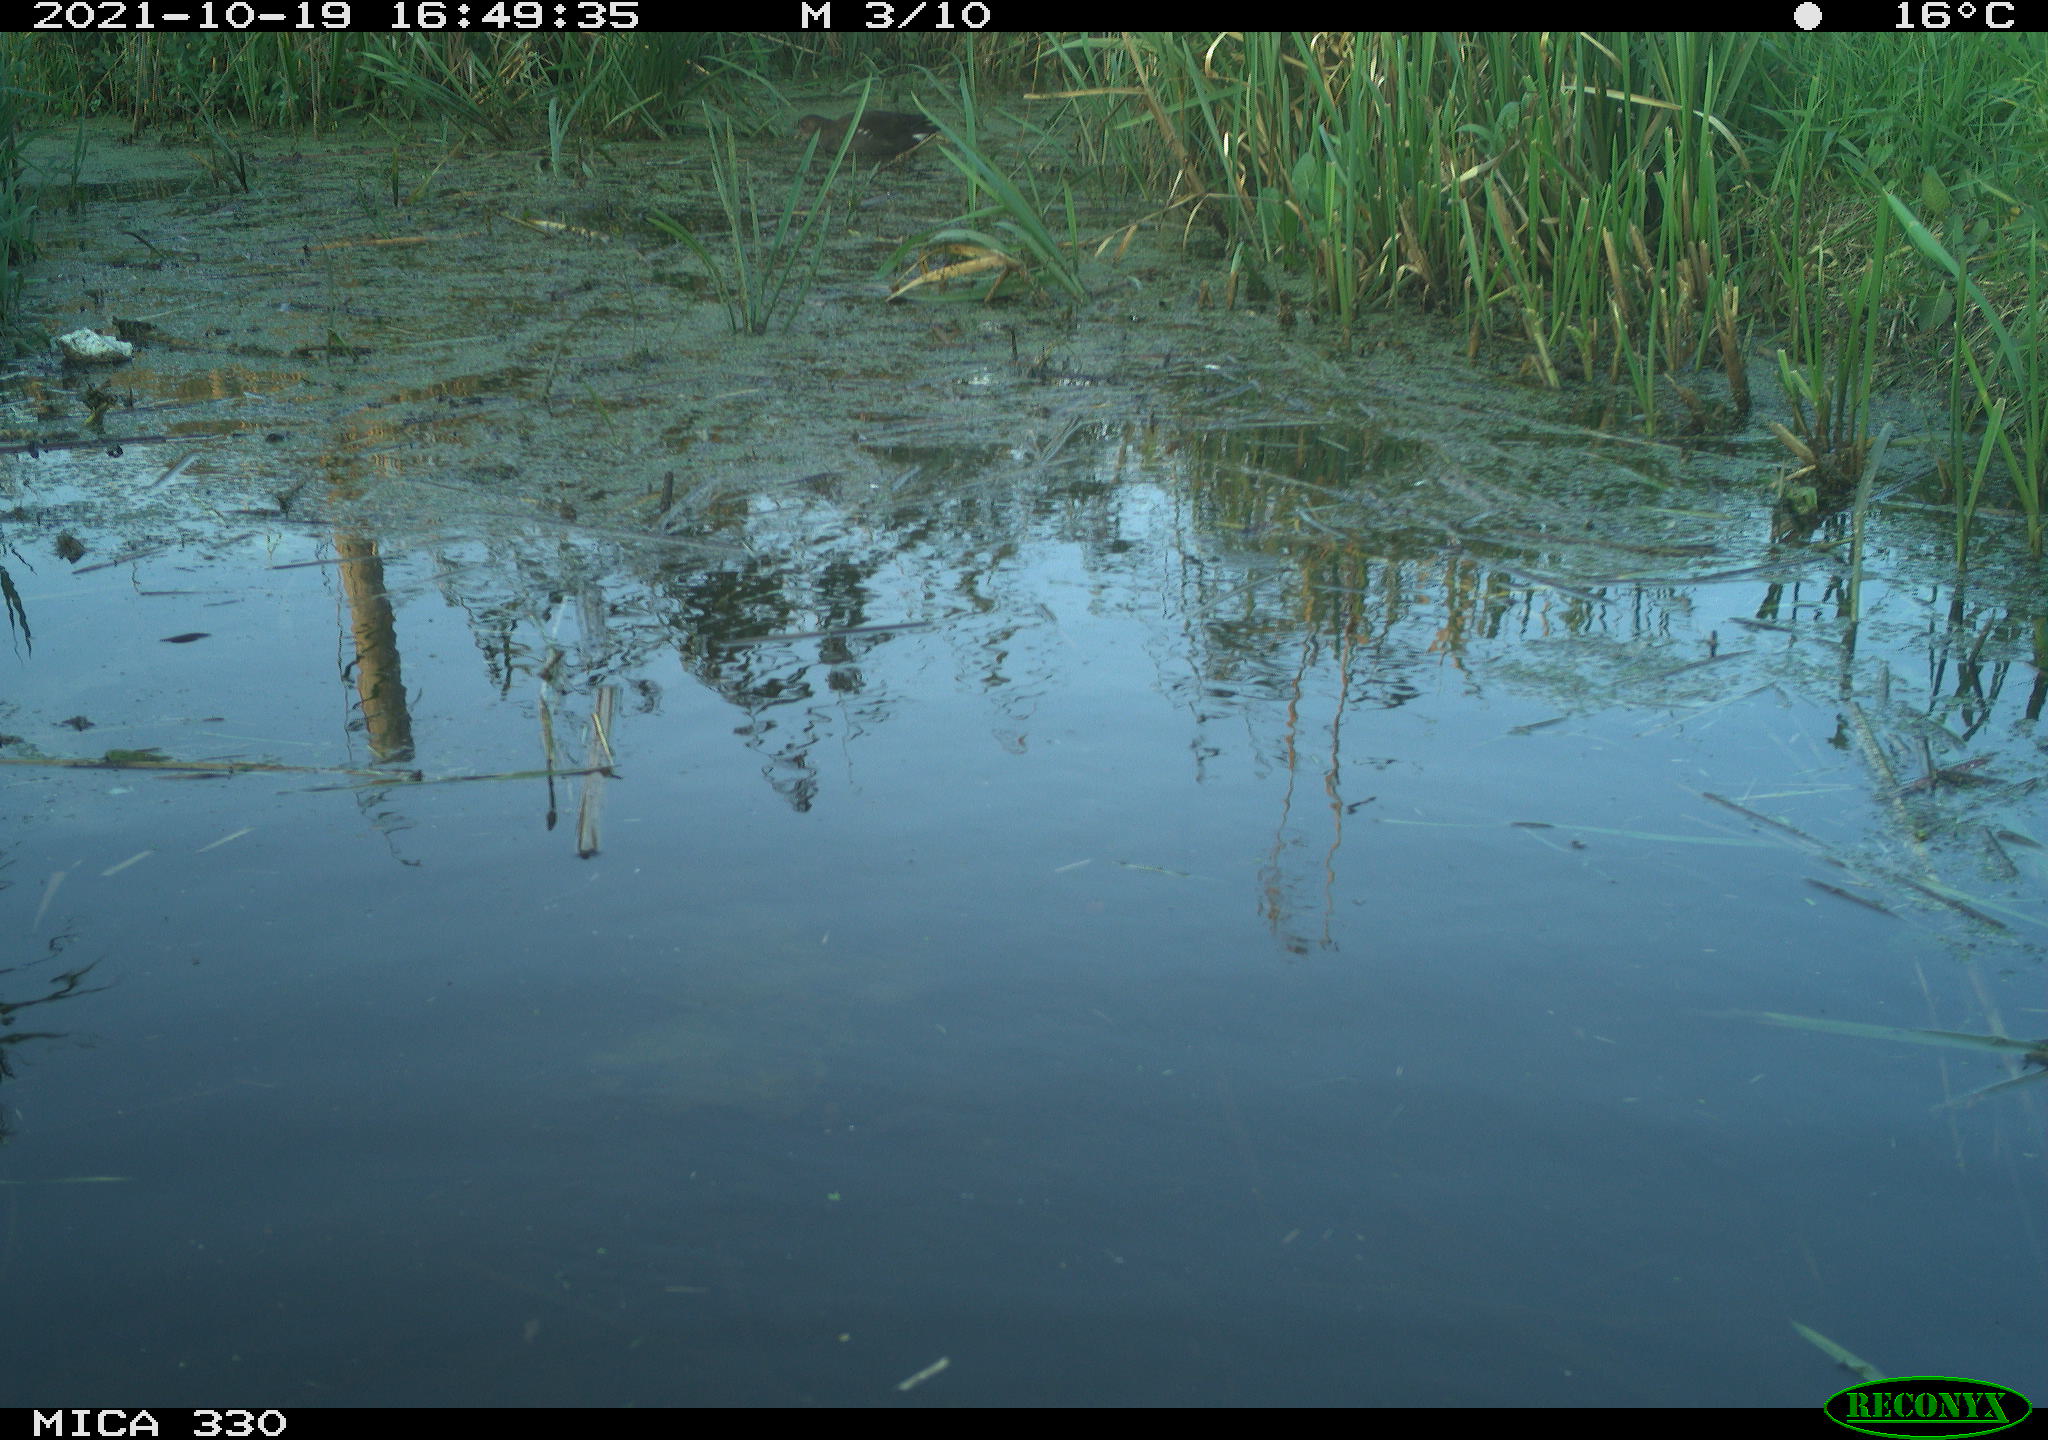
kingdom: Animalia
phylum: Chordata
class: Aves
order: Gruiformes
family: Rallidae
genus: Gallinula
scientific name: Gallinula chloropus
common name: Common moorhen
